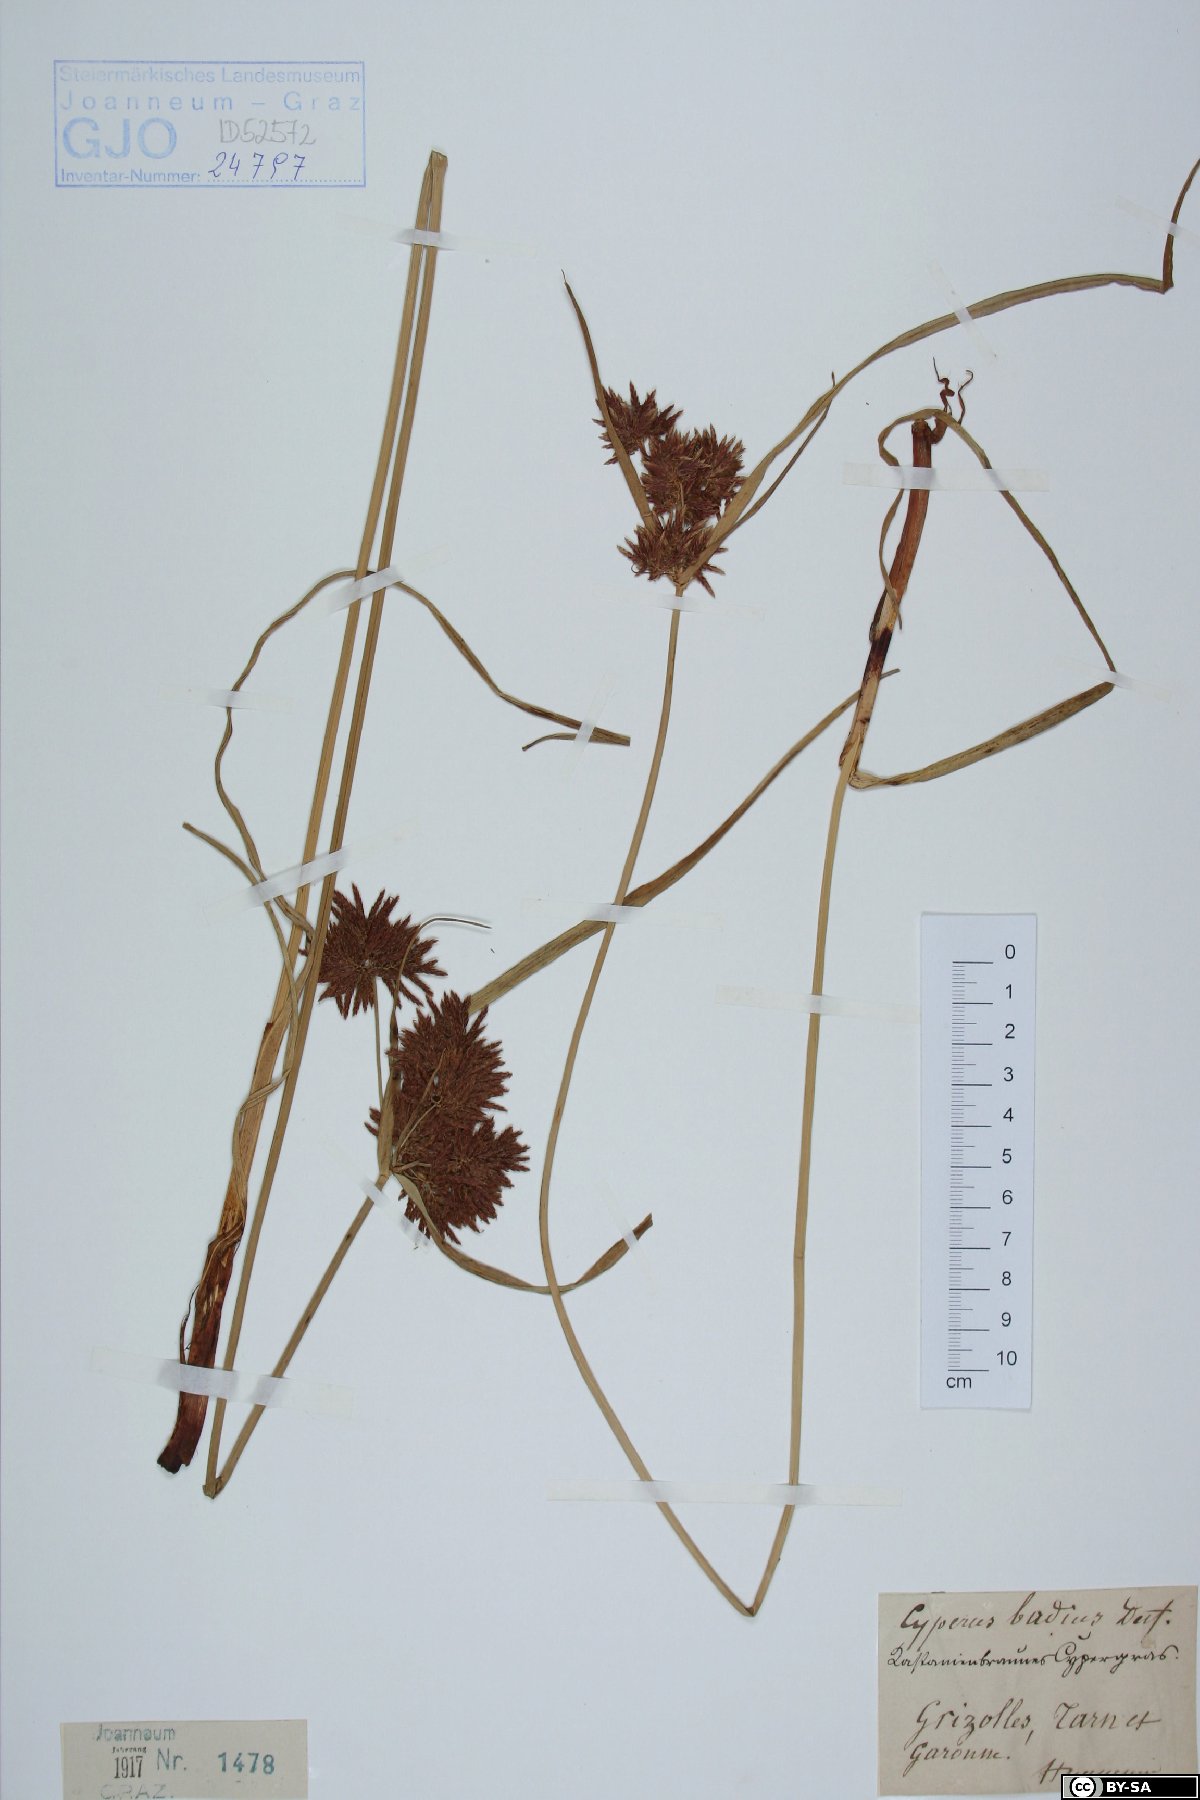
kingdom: Plantae
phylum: Tracheophyta
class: Liliopsida
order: Poales
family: Cyperaceae
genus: Cyperus
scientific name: Cyperus longus
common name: Galingale
